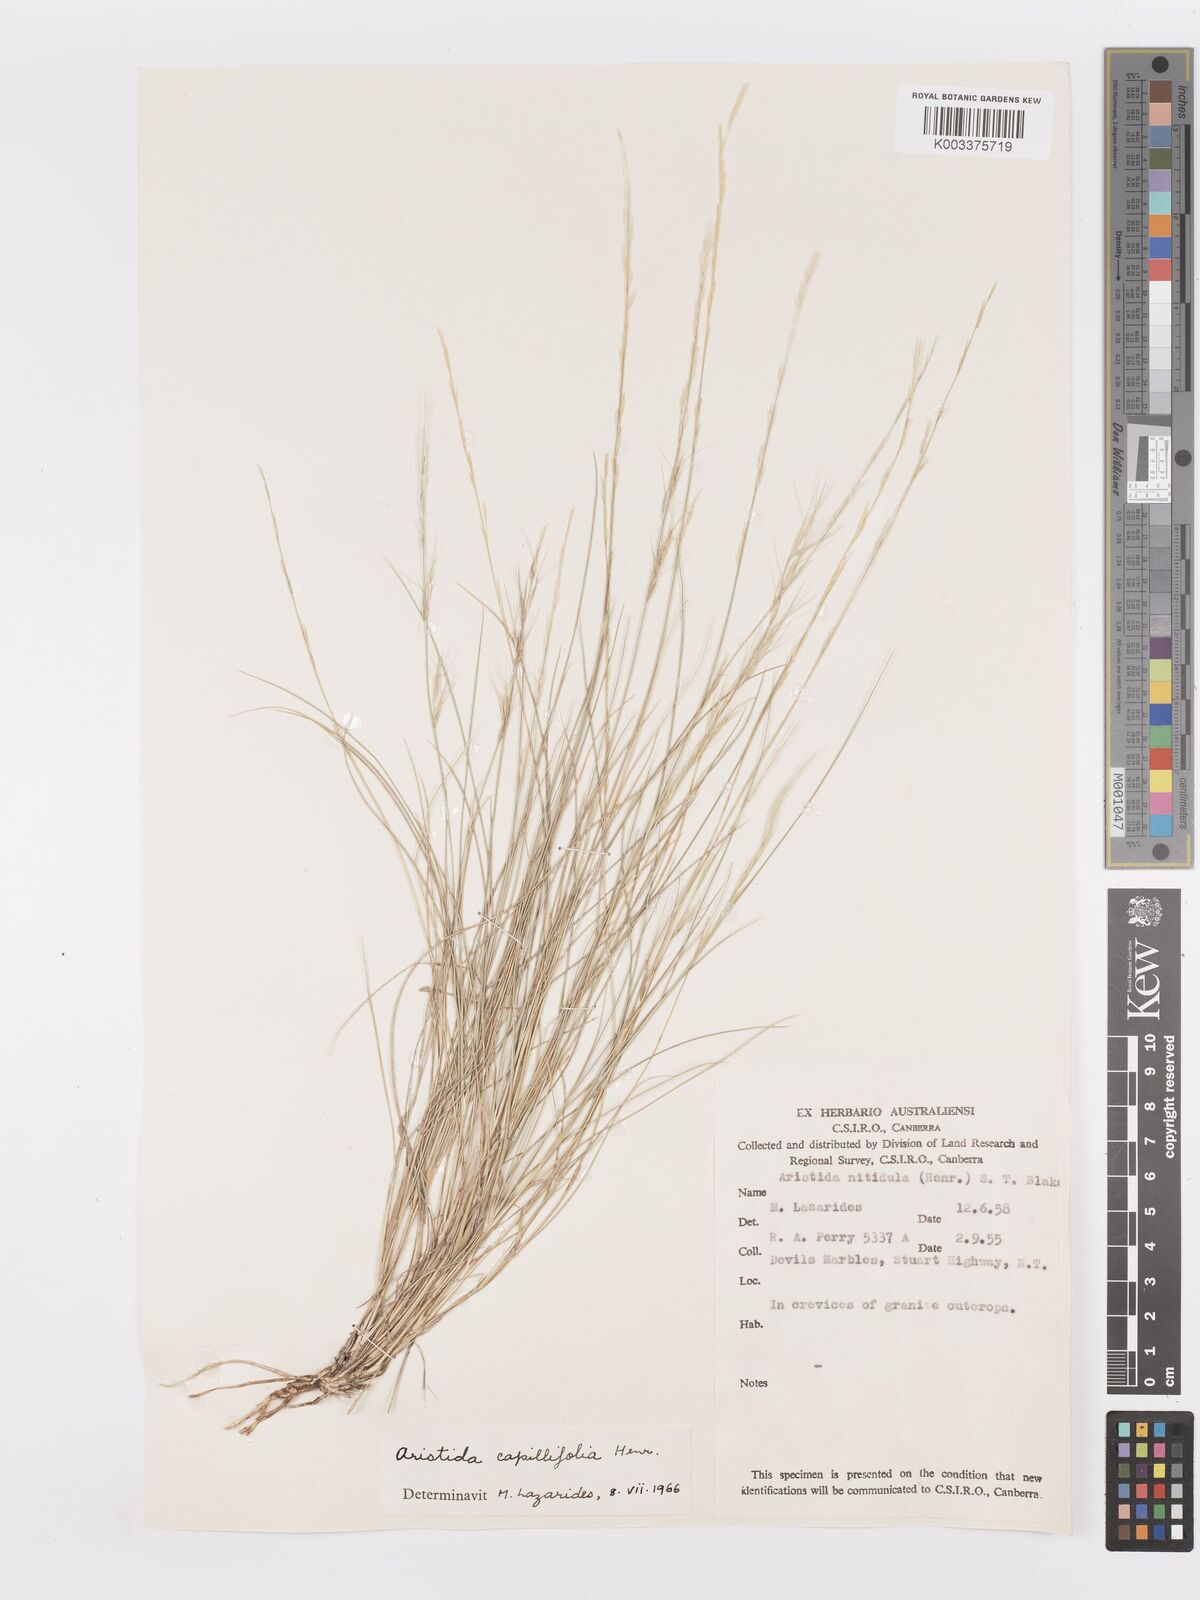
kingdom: Plantae
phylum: Tracheophyta
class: Liliopsida
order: Poales
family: Poaceae
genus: Aristida
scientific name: Aristida capillifolia
